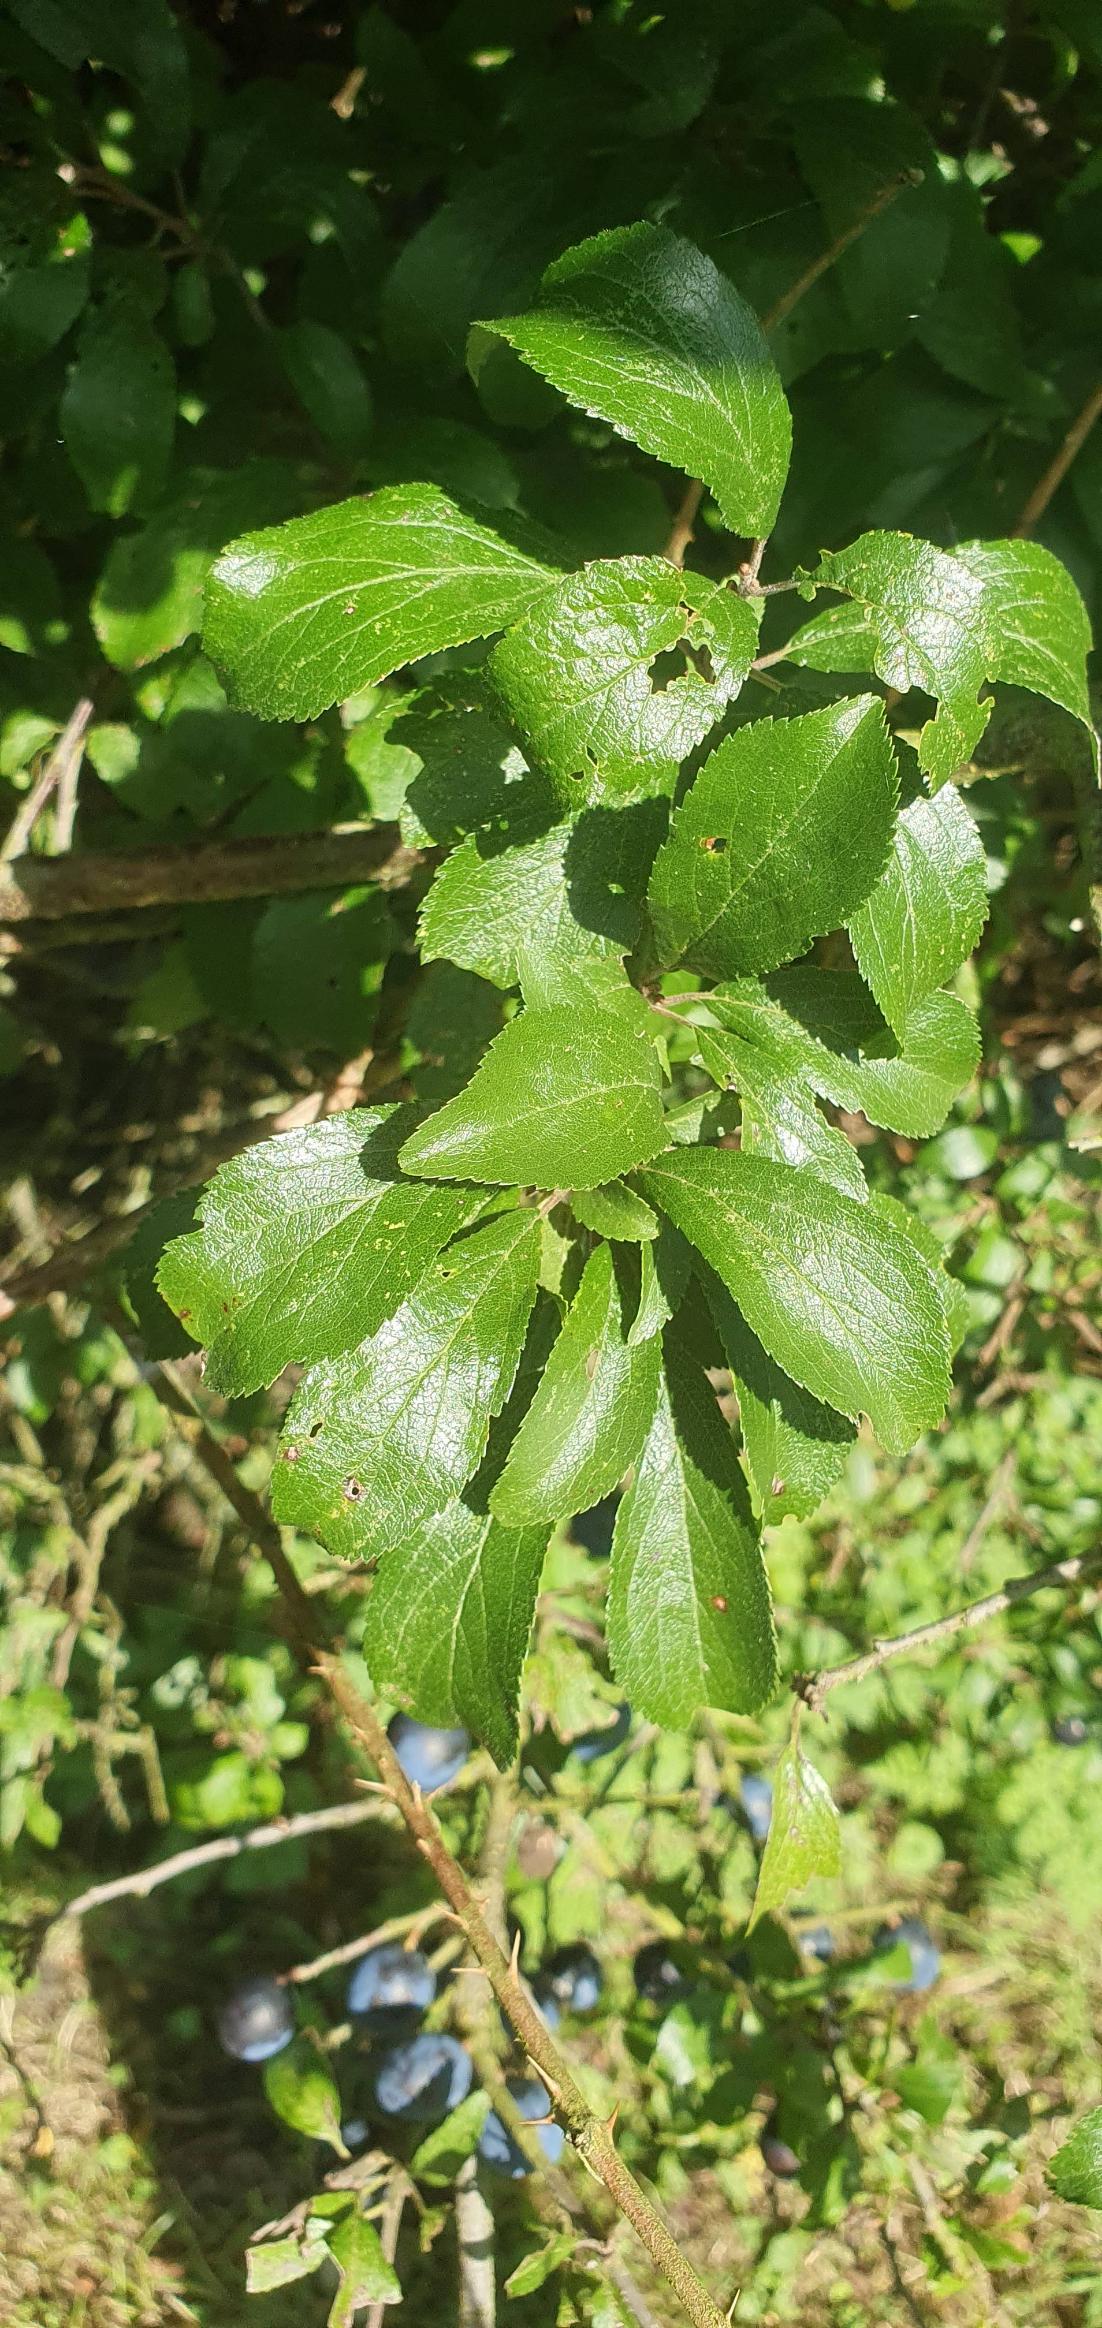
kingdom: Plantae
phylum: Tracheophyta
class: Magnoliopsida
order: Rosales
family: Rosaceae
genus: Prunus
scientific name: Prunus spinosa
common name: Slåen
